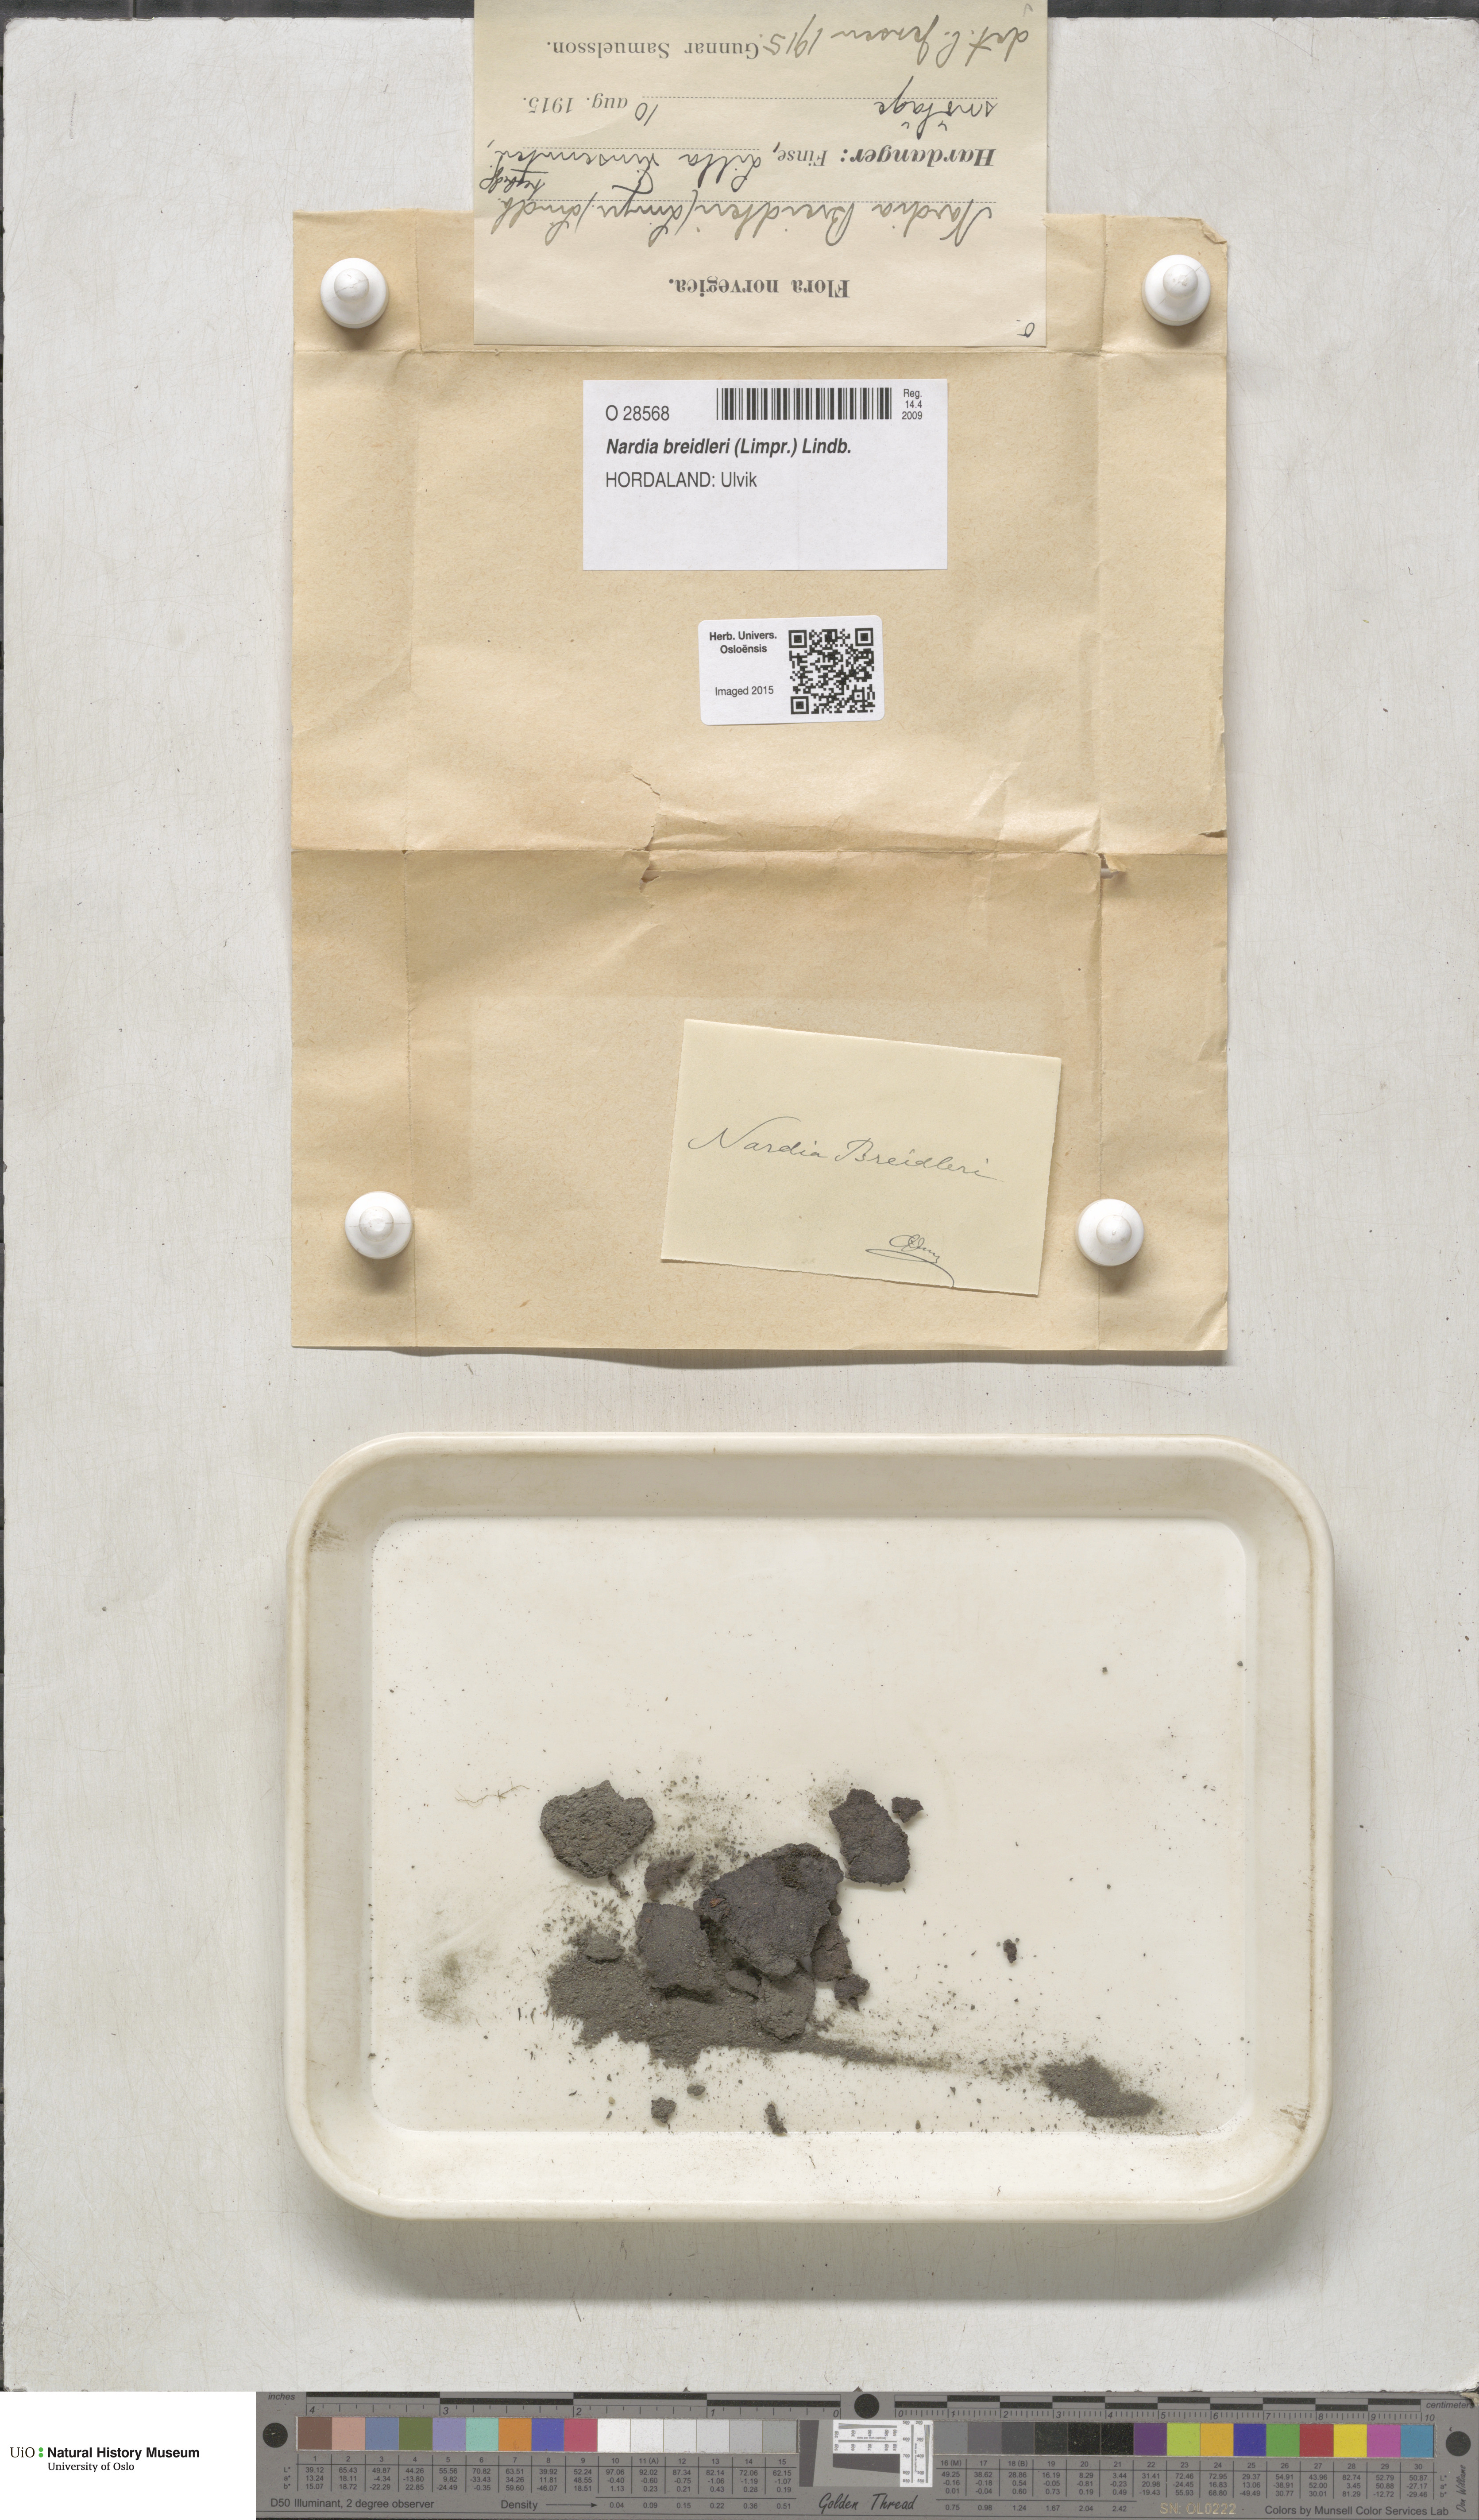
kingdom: Plantae
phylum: Marchantiophyta
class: Jungermanniopsida
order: Jungermanniales
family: Gymnomitriaceae
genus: Nardia
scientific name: Nardia breidleri
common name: Book flapwort
